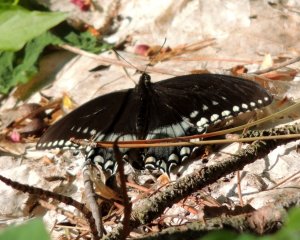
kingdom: Animalia
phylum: Arthropoda
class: Insecta
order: Lepidoptera
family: Papilionidae
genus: Pterourus
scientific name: Pterourus troilus
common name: Spicebush Swallowtail
